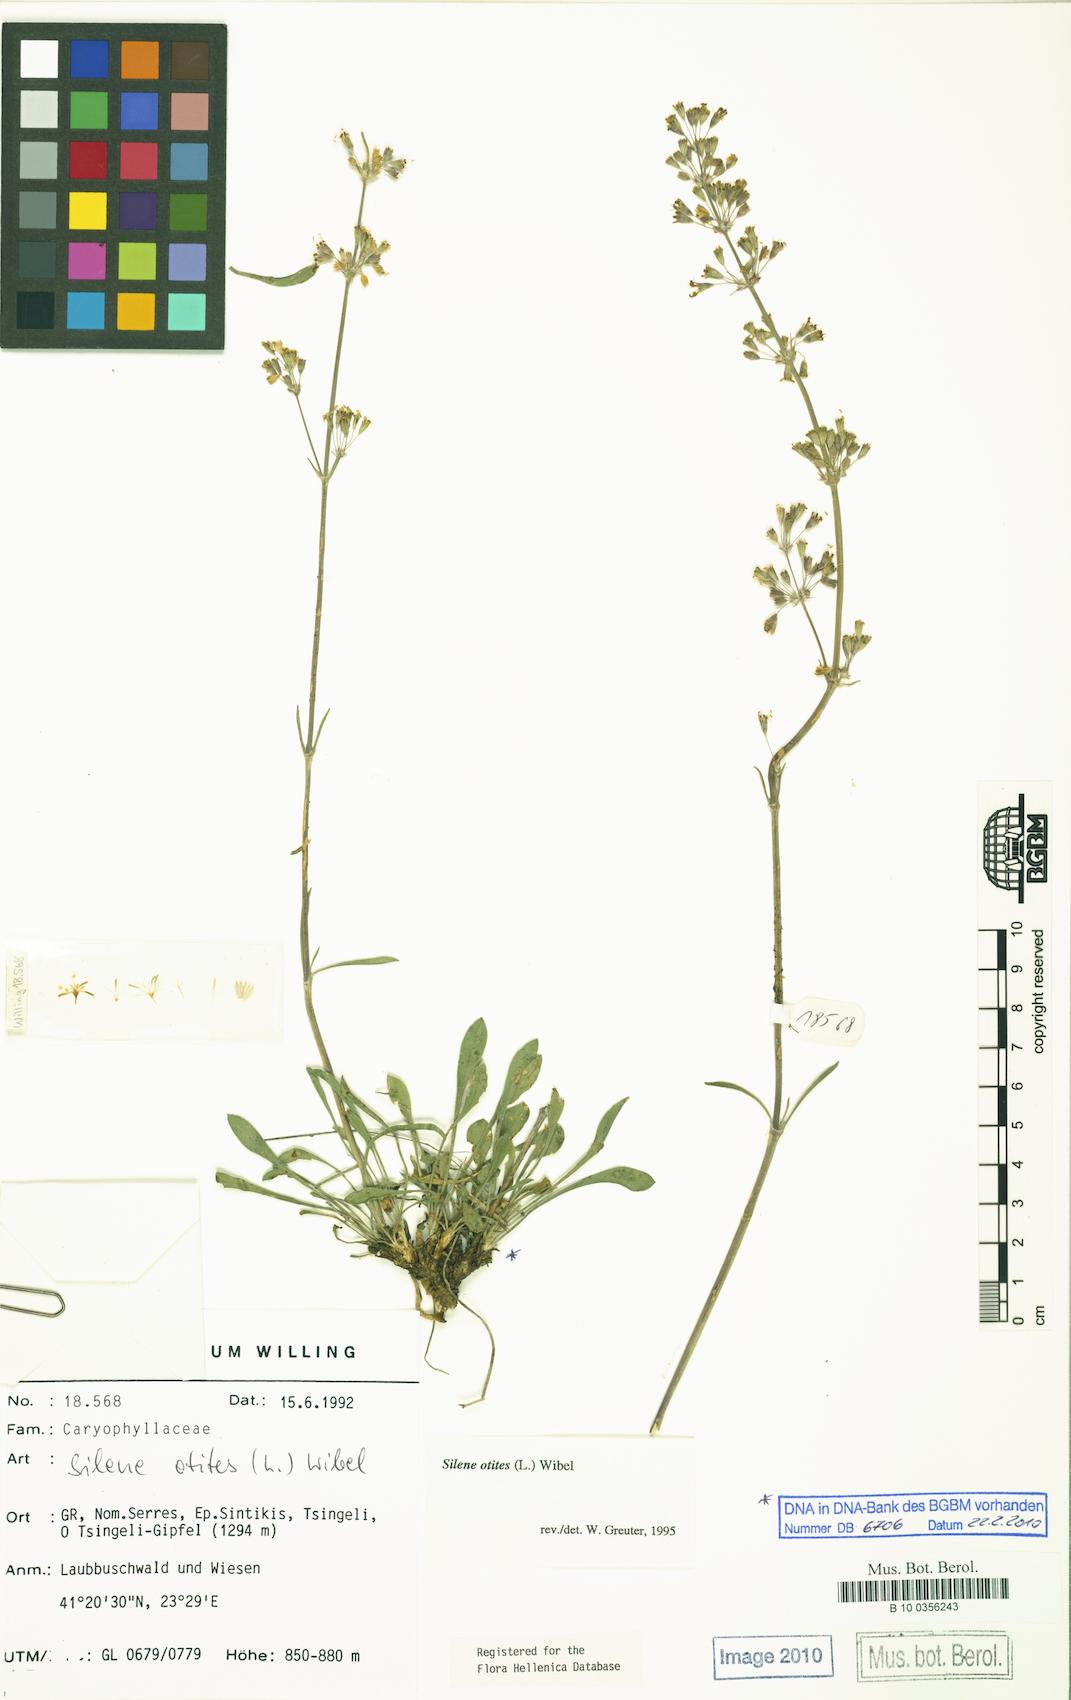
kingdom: Plantae
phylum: Tracheophyta
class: Magnoliopsida
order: Caryophyllales
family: Caryophyllaceae
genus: Silene
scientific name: Silene otites
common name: Spanish catchfly
